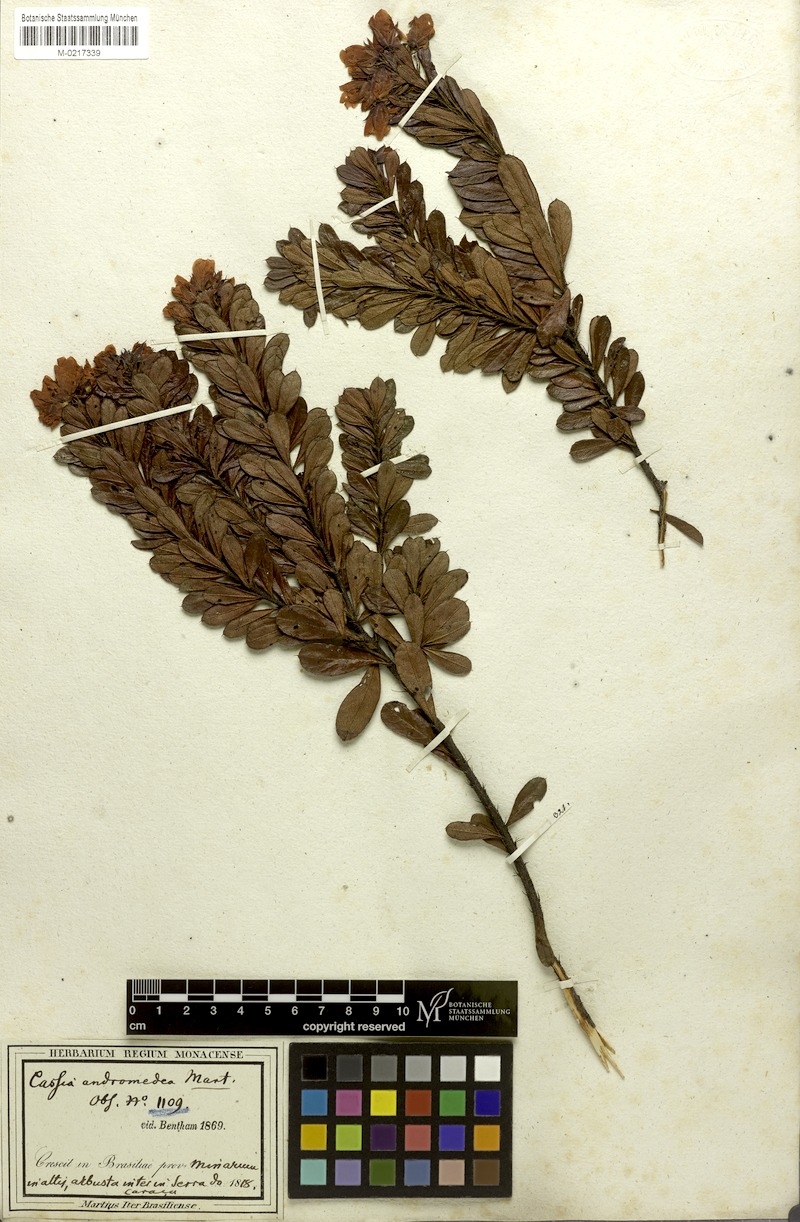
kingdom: Plantae
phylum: Tracheophyta
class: Magnoliopsida
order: Fabales
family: Fabaceae
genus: Chamaecrista
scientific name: Chamaecrista andromedea
